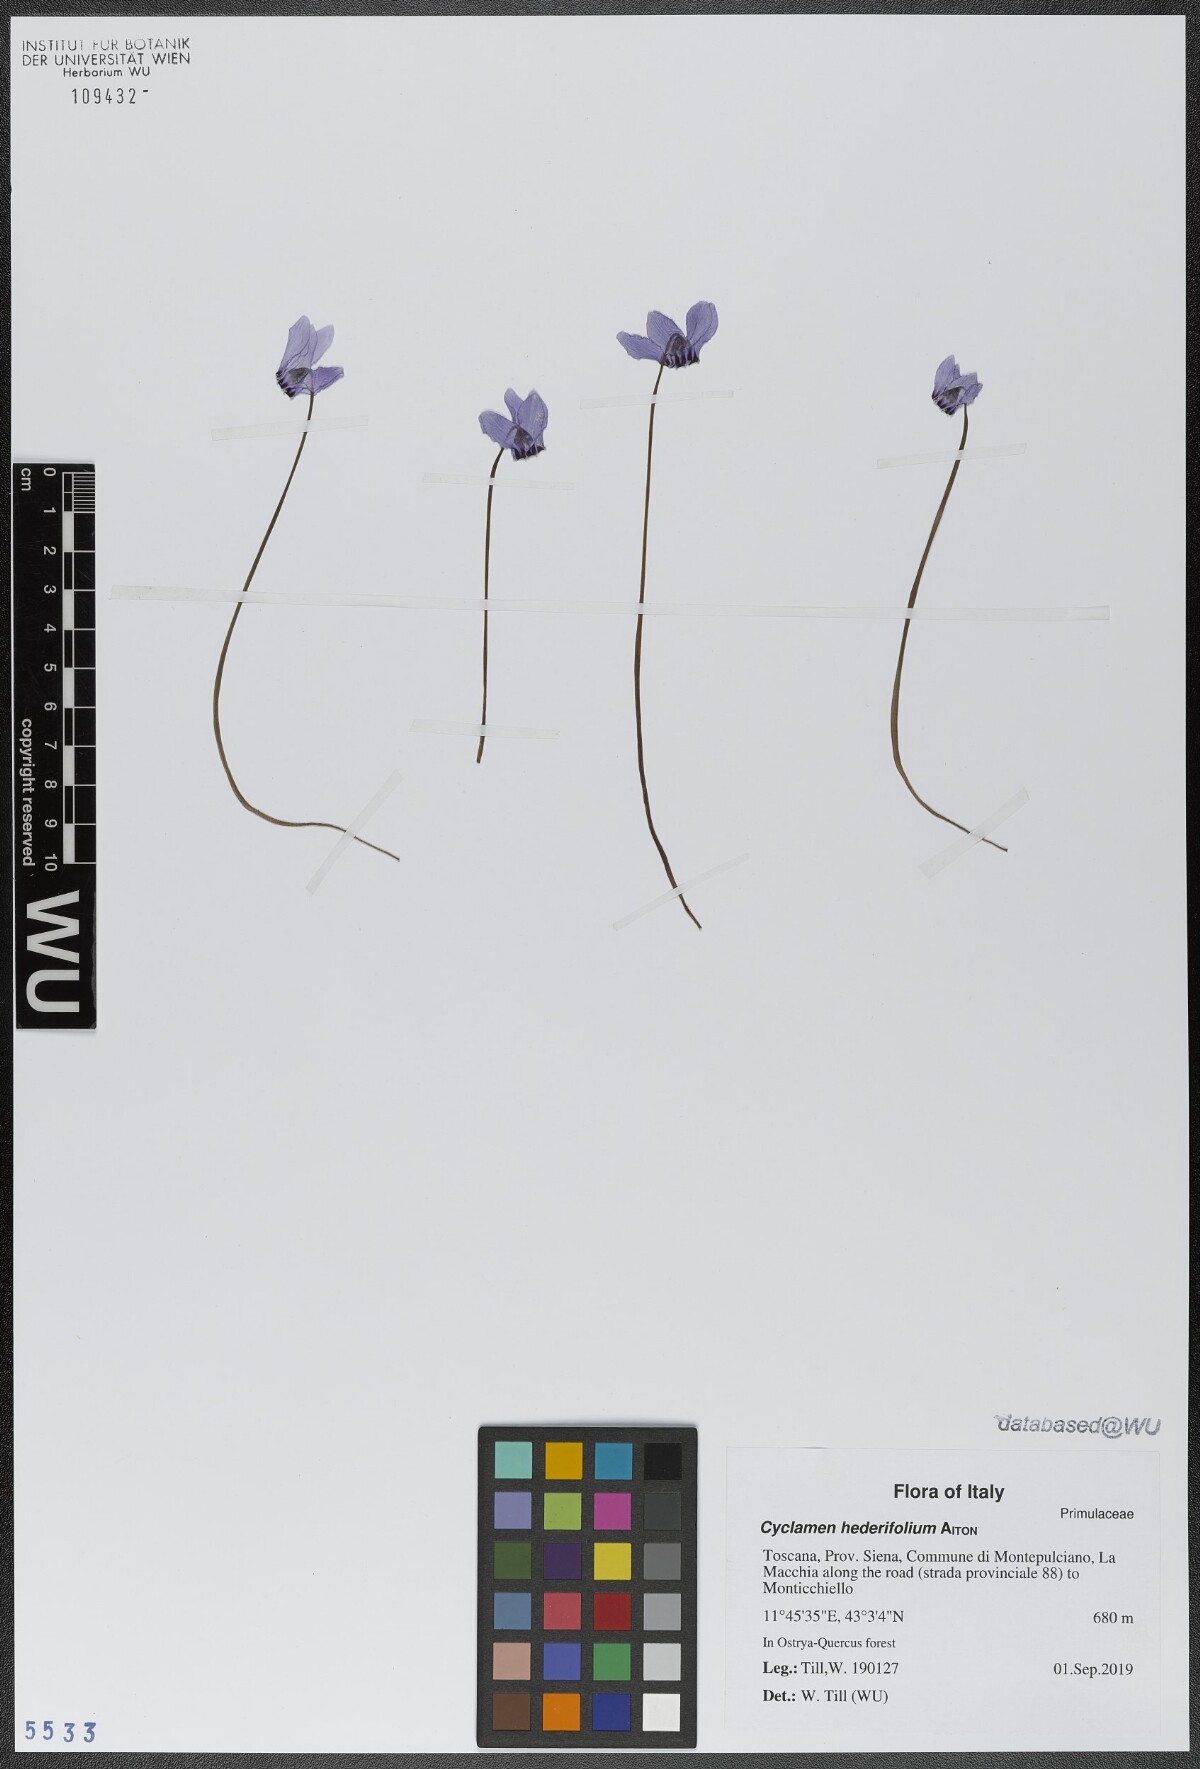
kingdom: Plantae
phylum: Tracheophyta
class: Magnoliopsida
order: Ericales
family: Primulaceae
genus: Cyclamen
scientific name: Cyclamen hederifolium
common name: Sowbread
